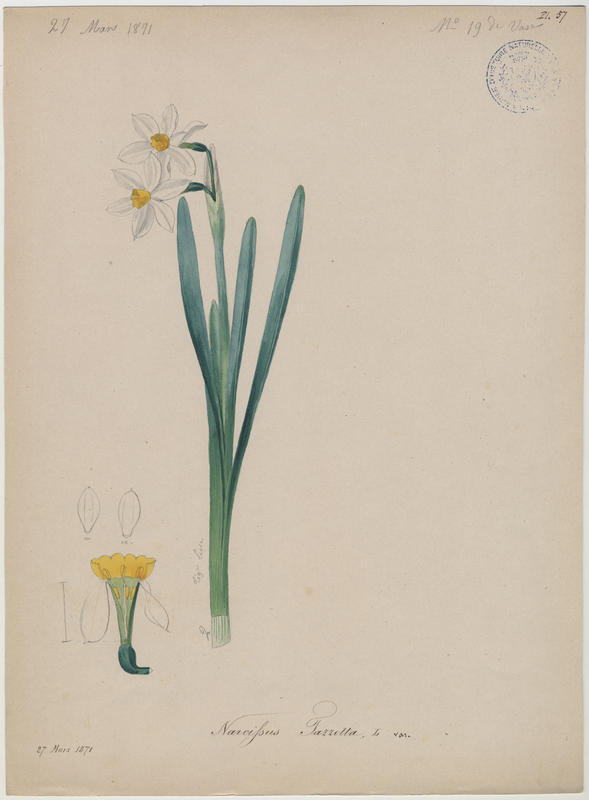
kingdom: Plantae
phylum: Tracheophyta
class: Liliopsida
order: Asparagales
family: Amaryllidaceae
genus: Narcissus
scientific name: Narcissus tazetta
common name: Bunch-flowered daffodil
